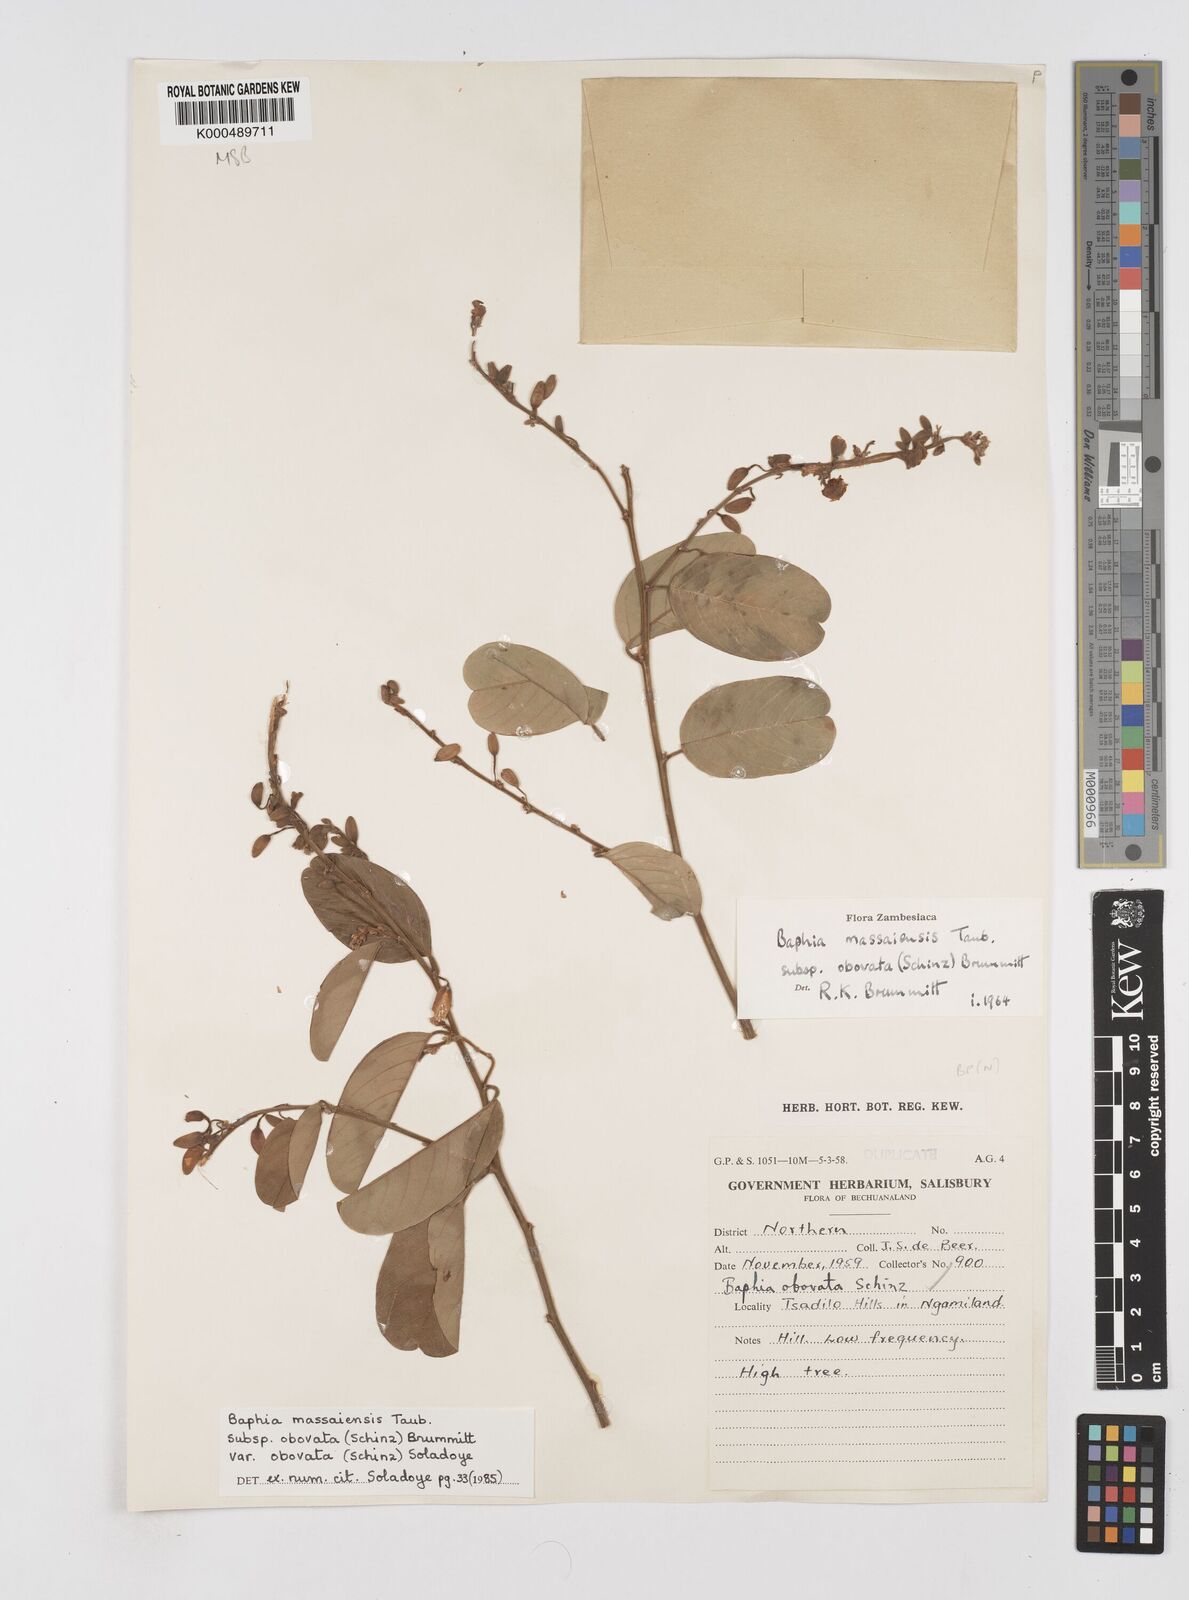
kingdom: Plantae
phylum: Tracheophyta
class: Magnoliopsida
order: Fabales
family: Fabaceae
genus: Baphia
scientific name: Baphia massaiensis
